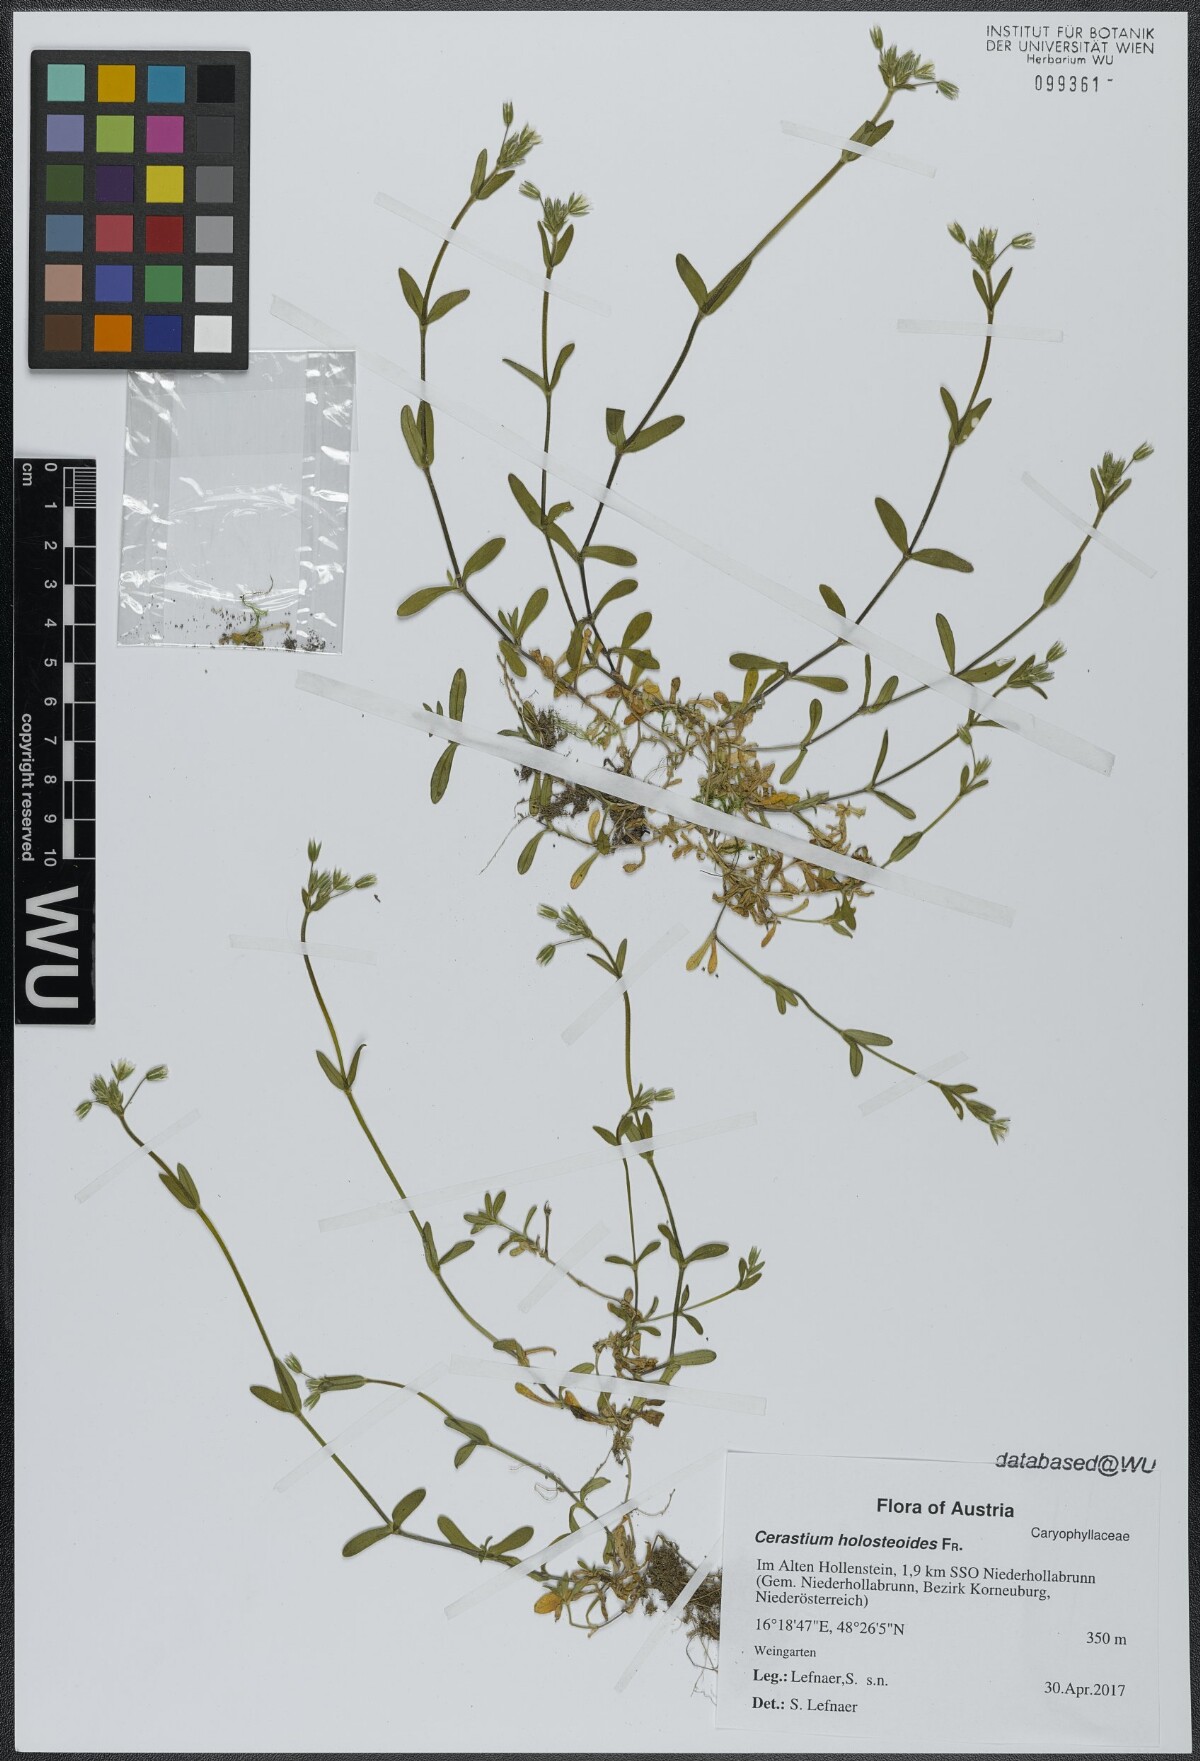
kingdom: Plantae
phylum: Tracheophyta
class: Magnoliopsida
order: Caryophyllales
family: Caryophyllaceae
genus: Cerastium
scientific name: Cerastium holosteoides
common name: Big chickweed
